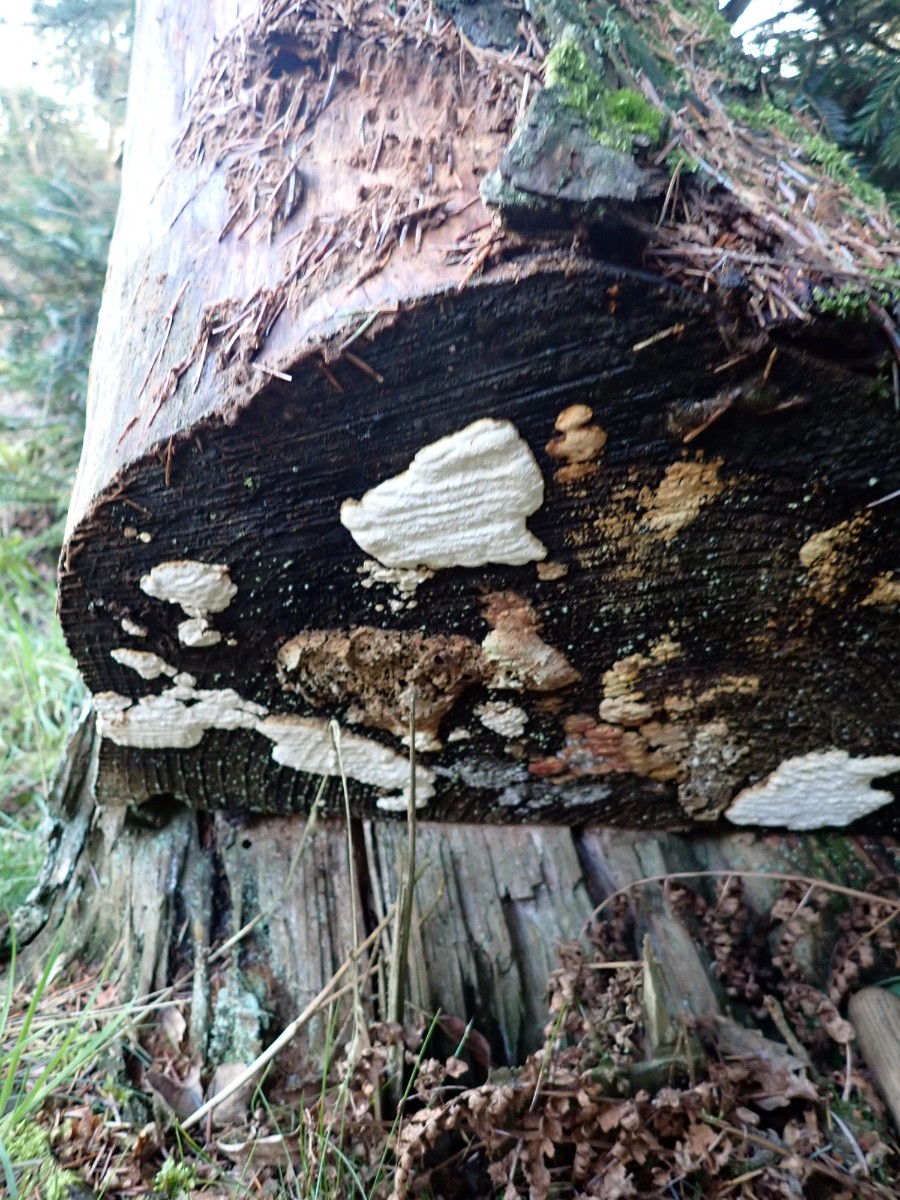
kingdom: Fungi
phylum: Basidiomycota
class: Agaricomycetes
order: Polyporales
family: Fomitopsidaceae
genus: Neoantrodia
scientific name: Neoantrodia serialis
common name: række-sejporesvamp
